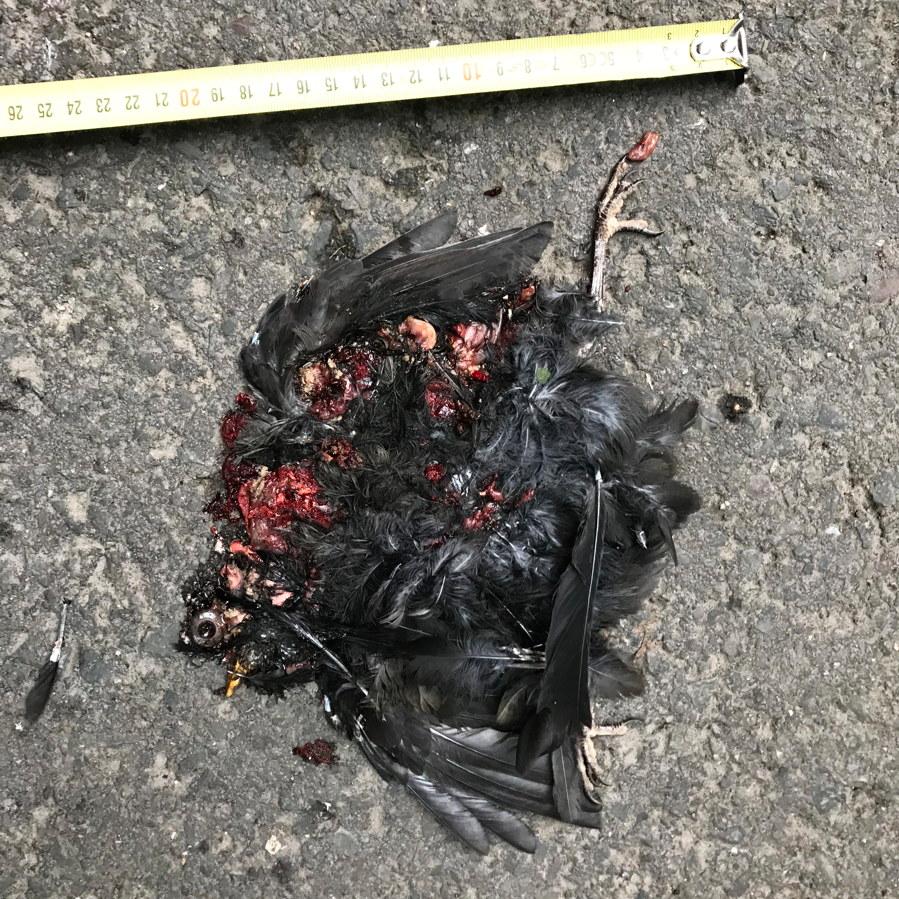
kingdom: Animalia
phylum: Chordata
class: Aves
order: Passeriformes
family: Turdidae
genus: Turdus
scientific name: Turdus merula
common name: Common blackbird
